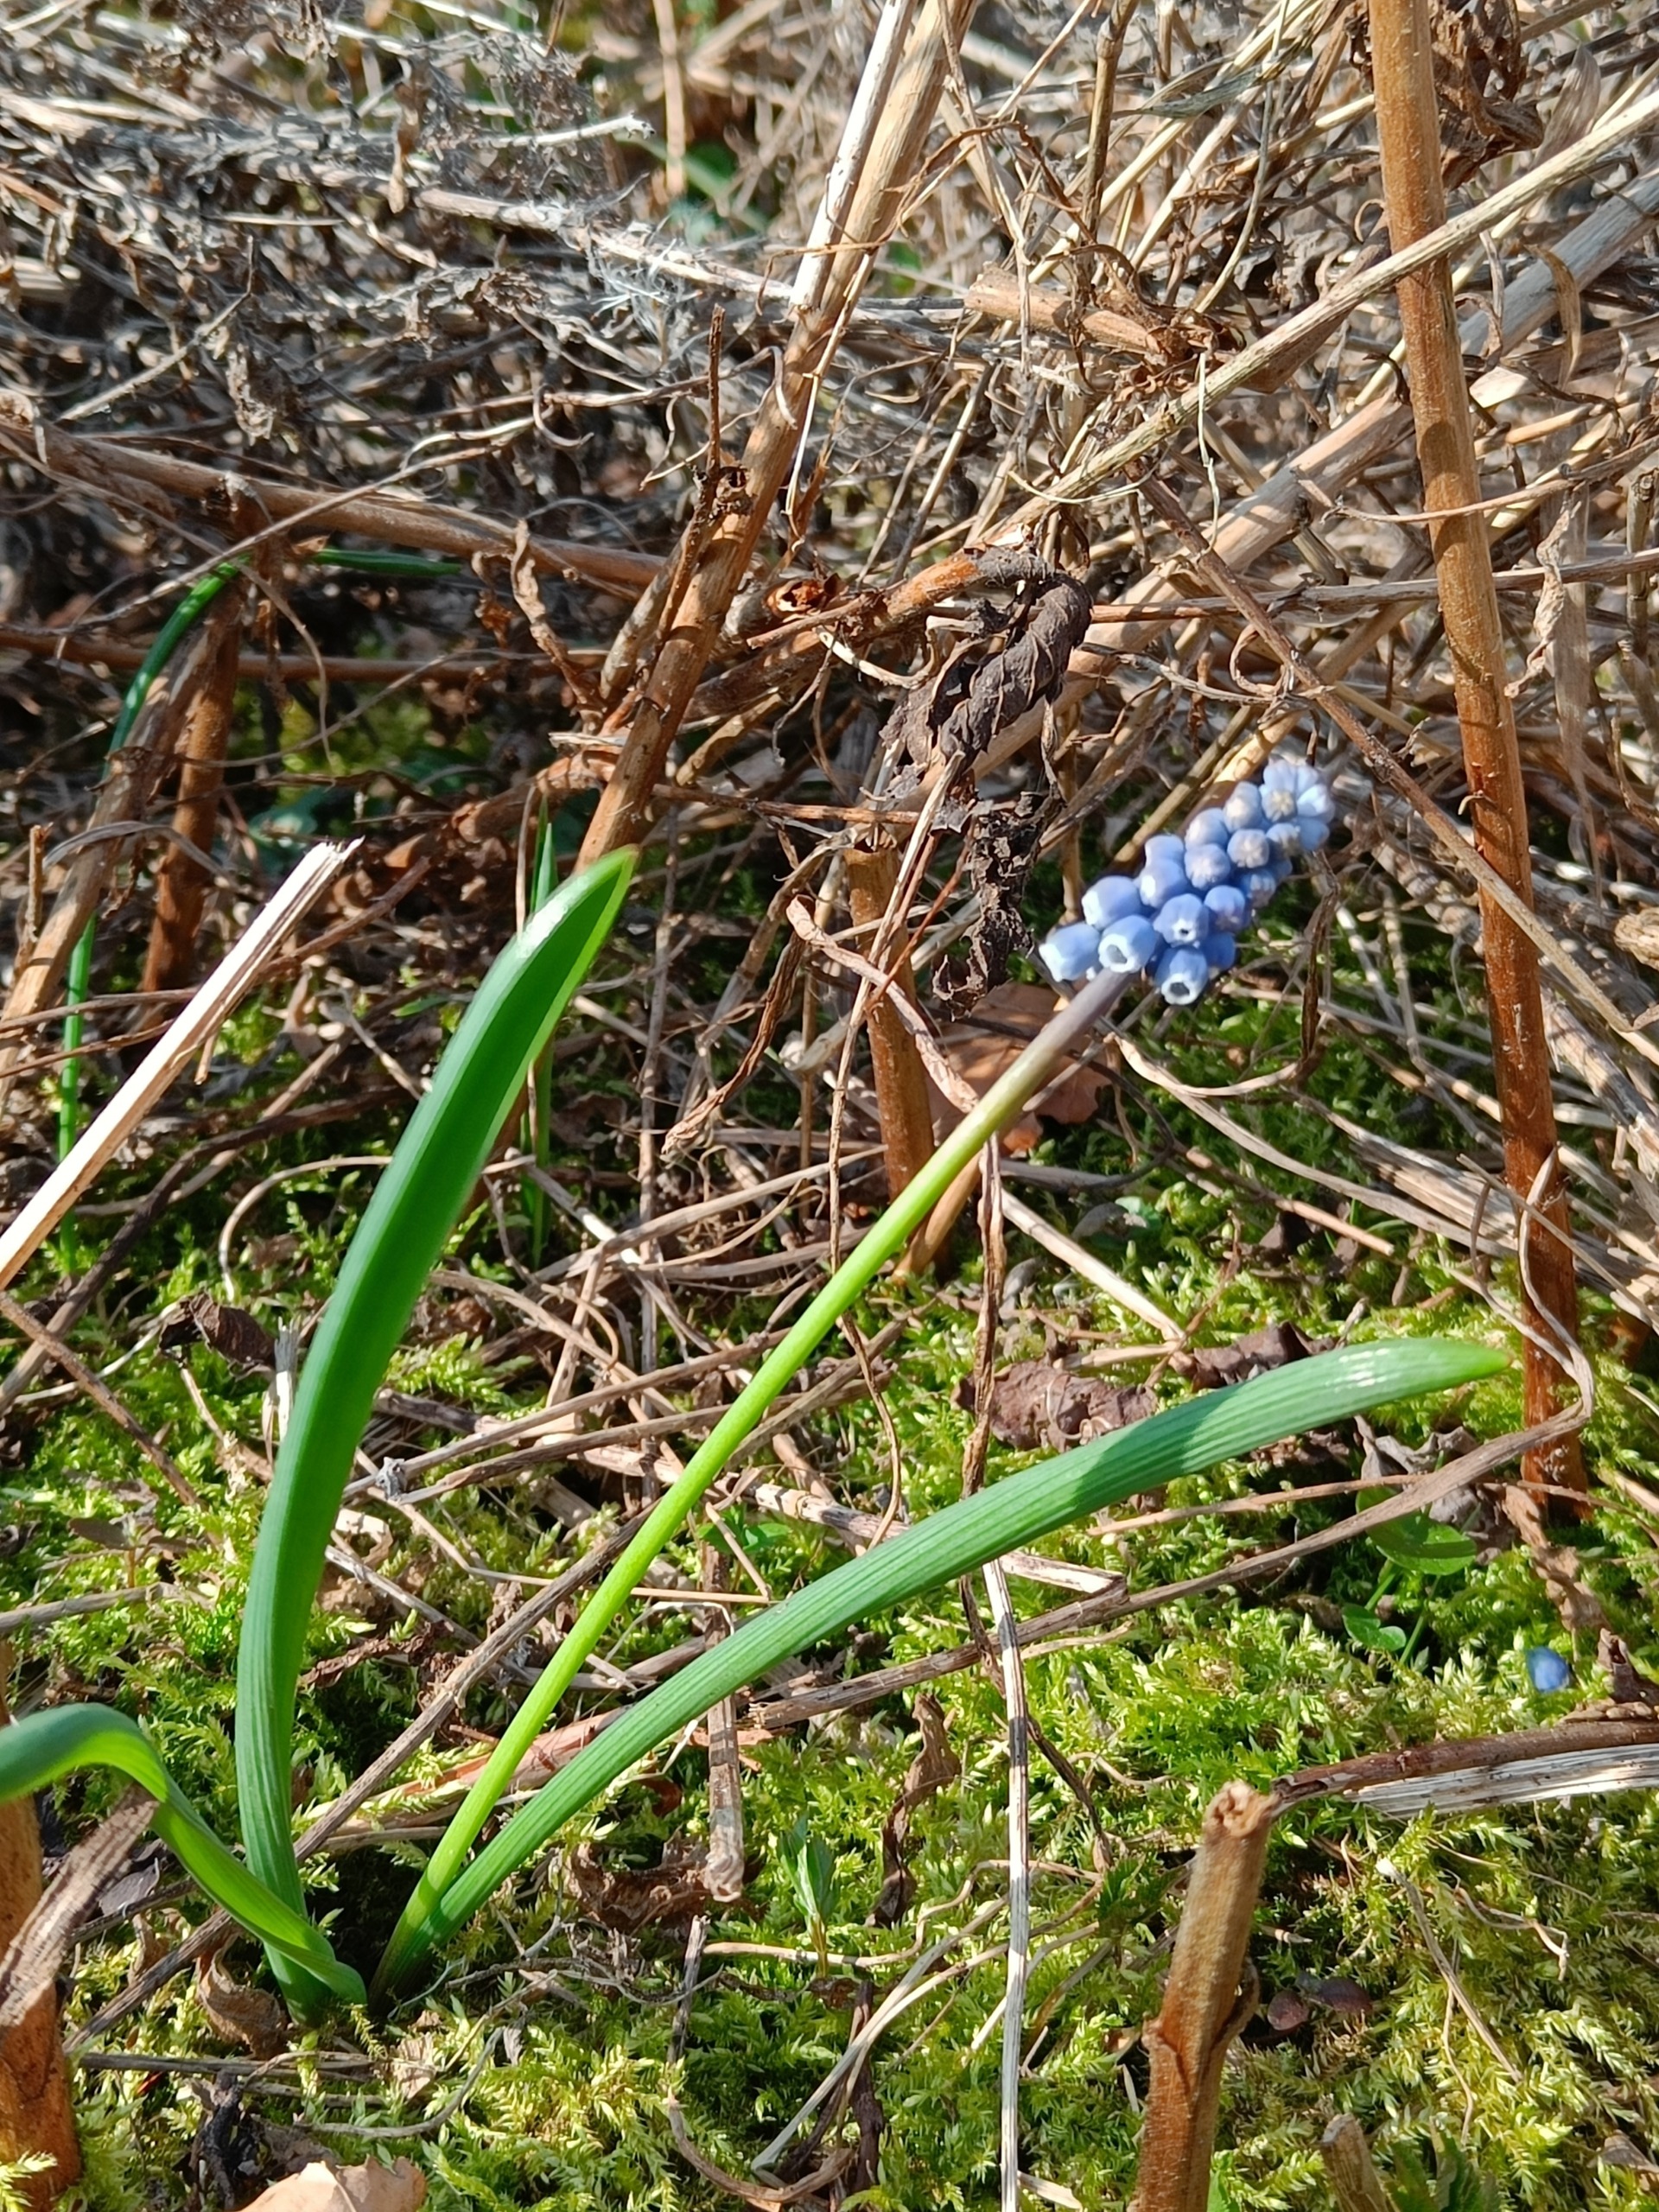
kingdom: Plantae
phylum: Tracheophyta
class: Liliopsida
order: Asparagales
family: Asparagaceae
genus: Muscari
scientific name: Muscari botryoides
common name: Perlehyacint
